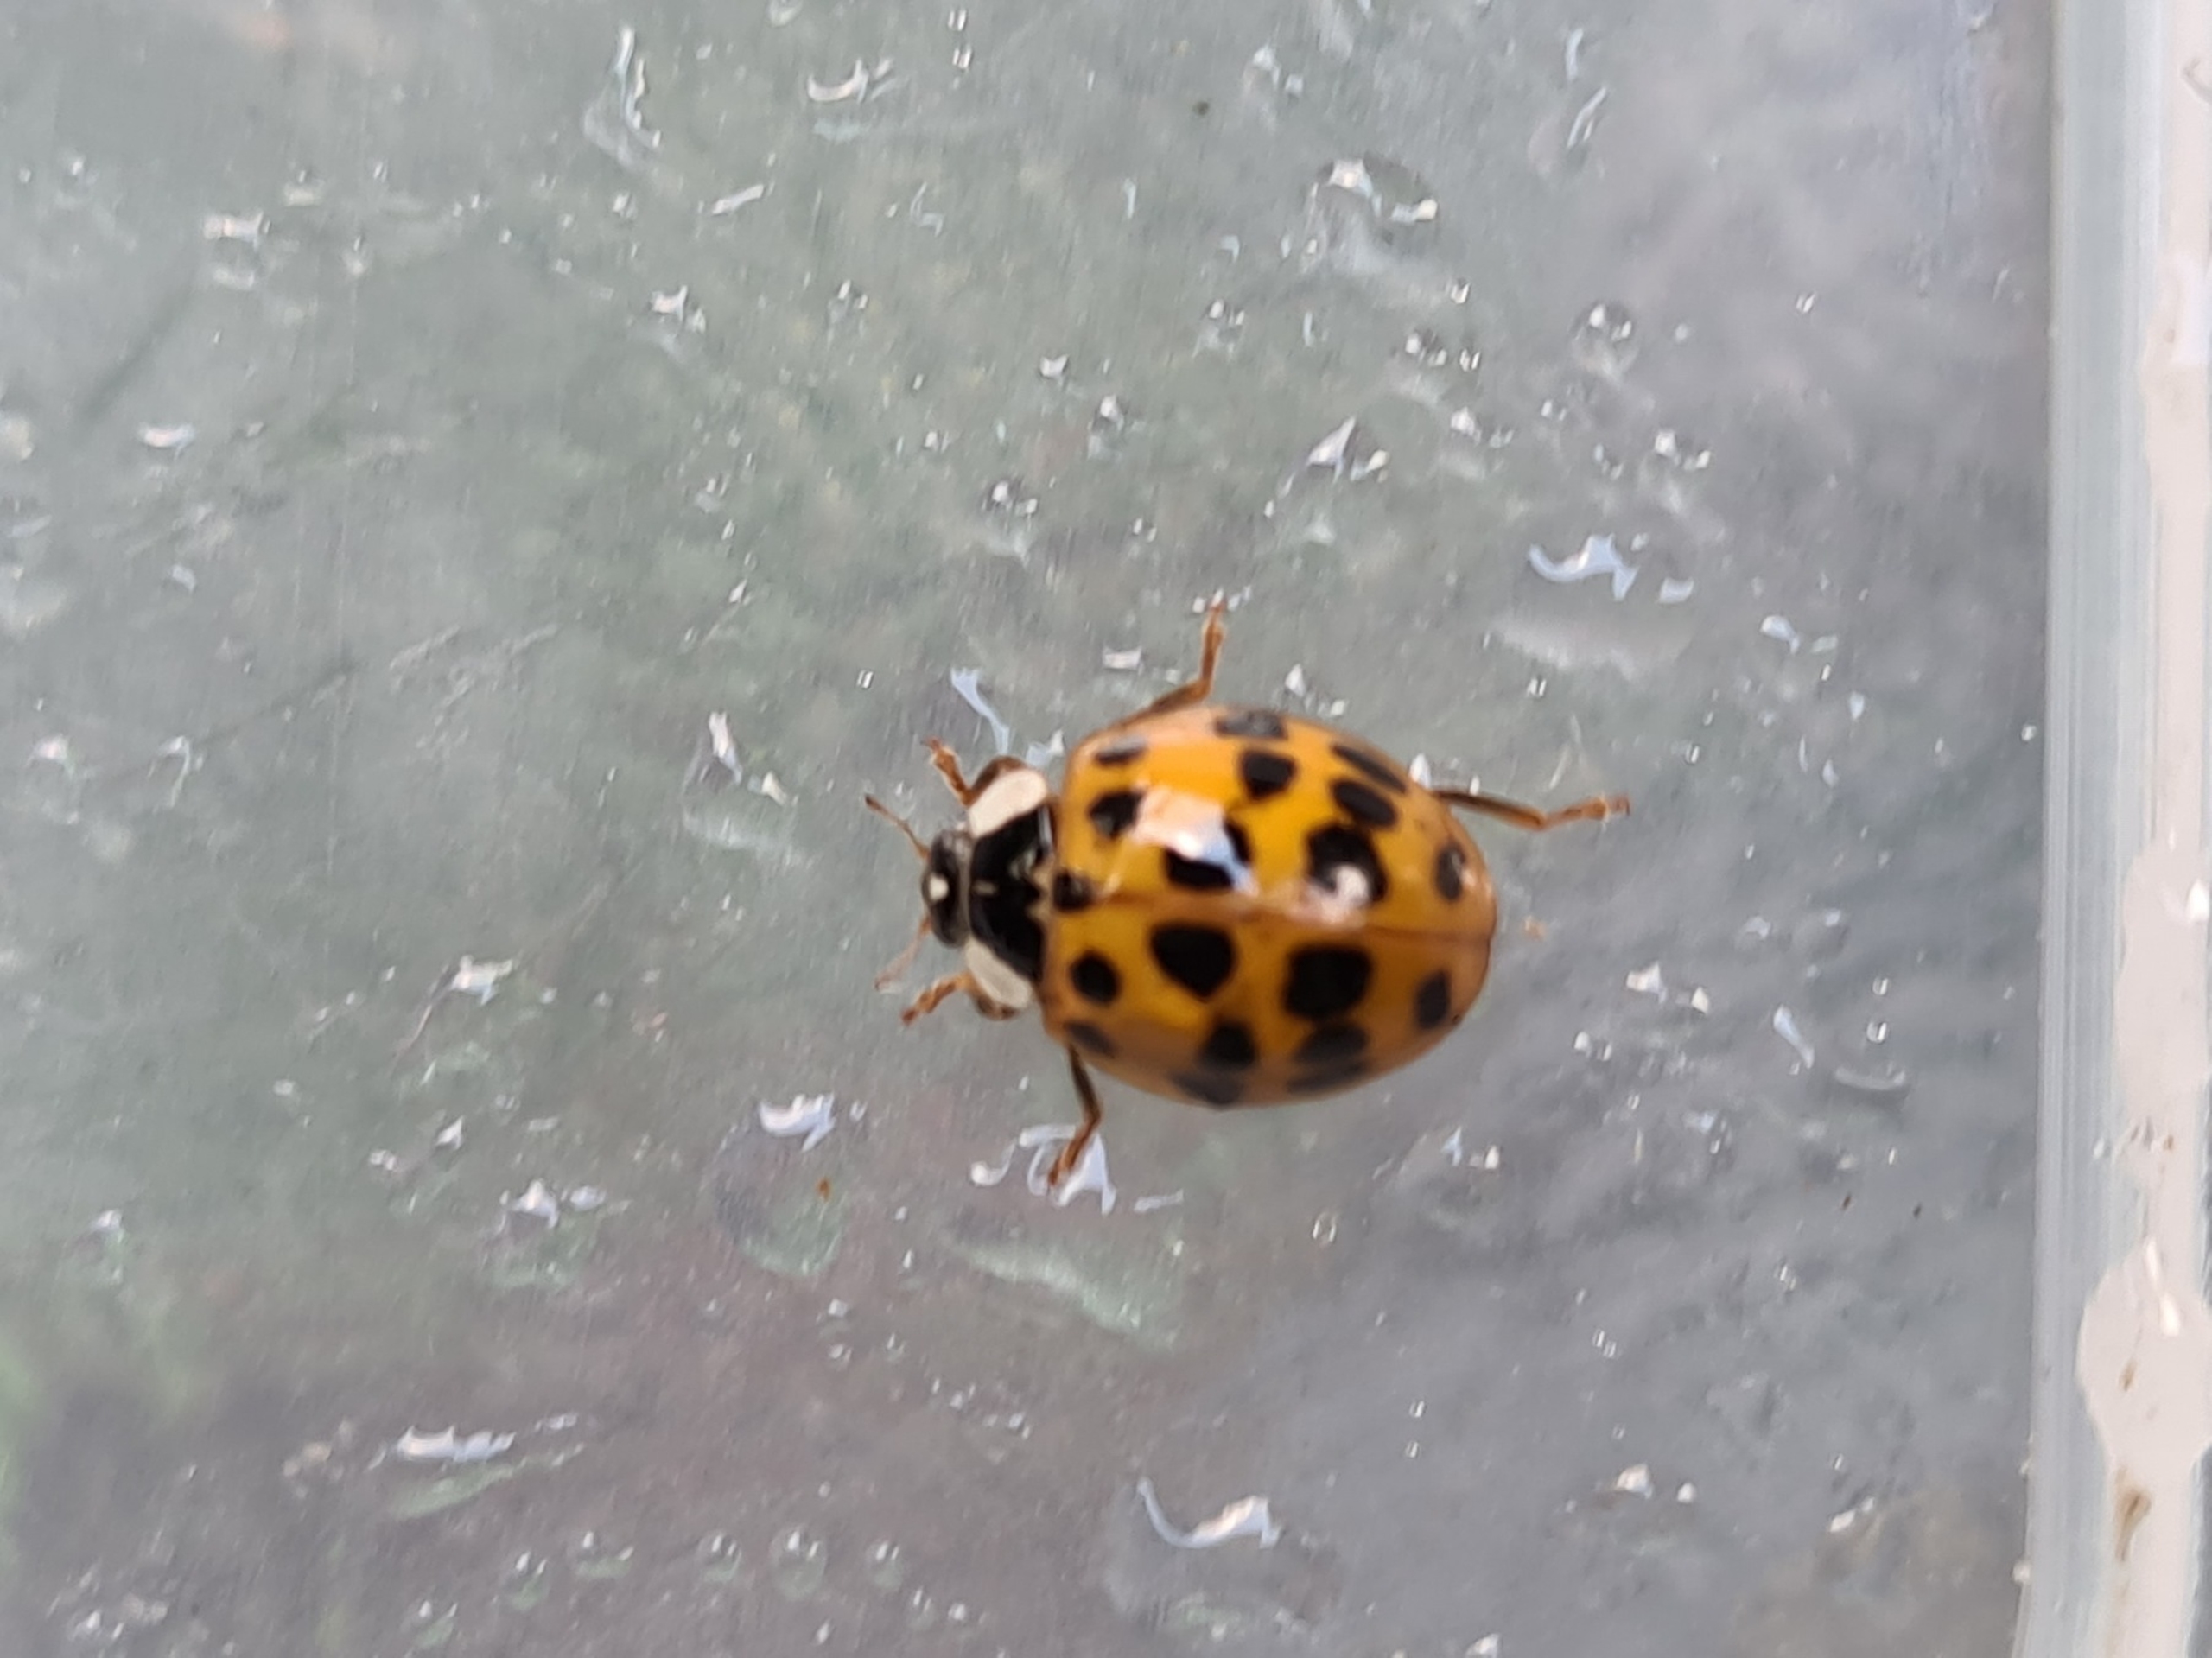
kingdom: Animalia
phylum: Arthropoda
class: Insecta
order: Coleoptera
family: Coccinellidae
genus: Harmonia
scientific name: Harmonia axyridis
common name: Harlekinmariehøne
